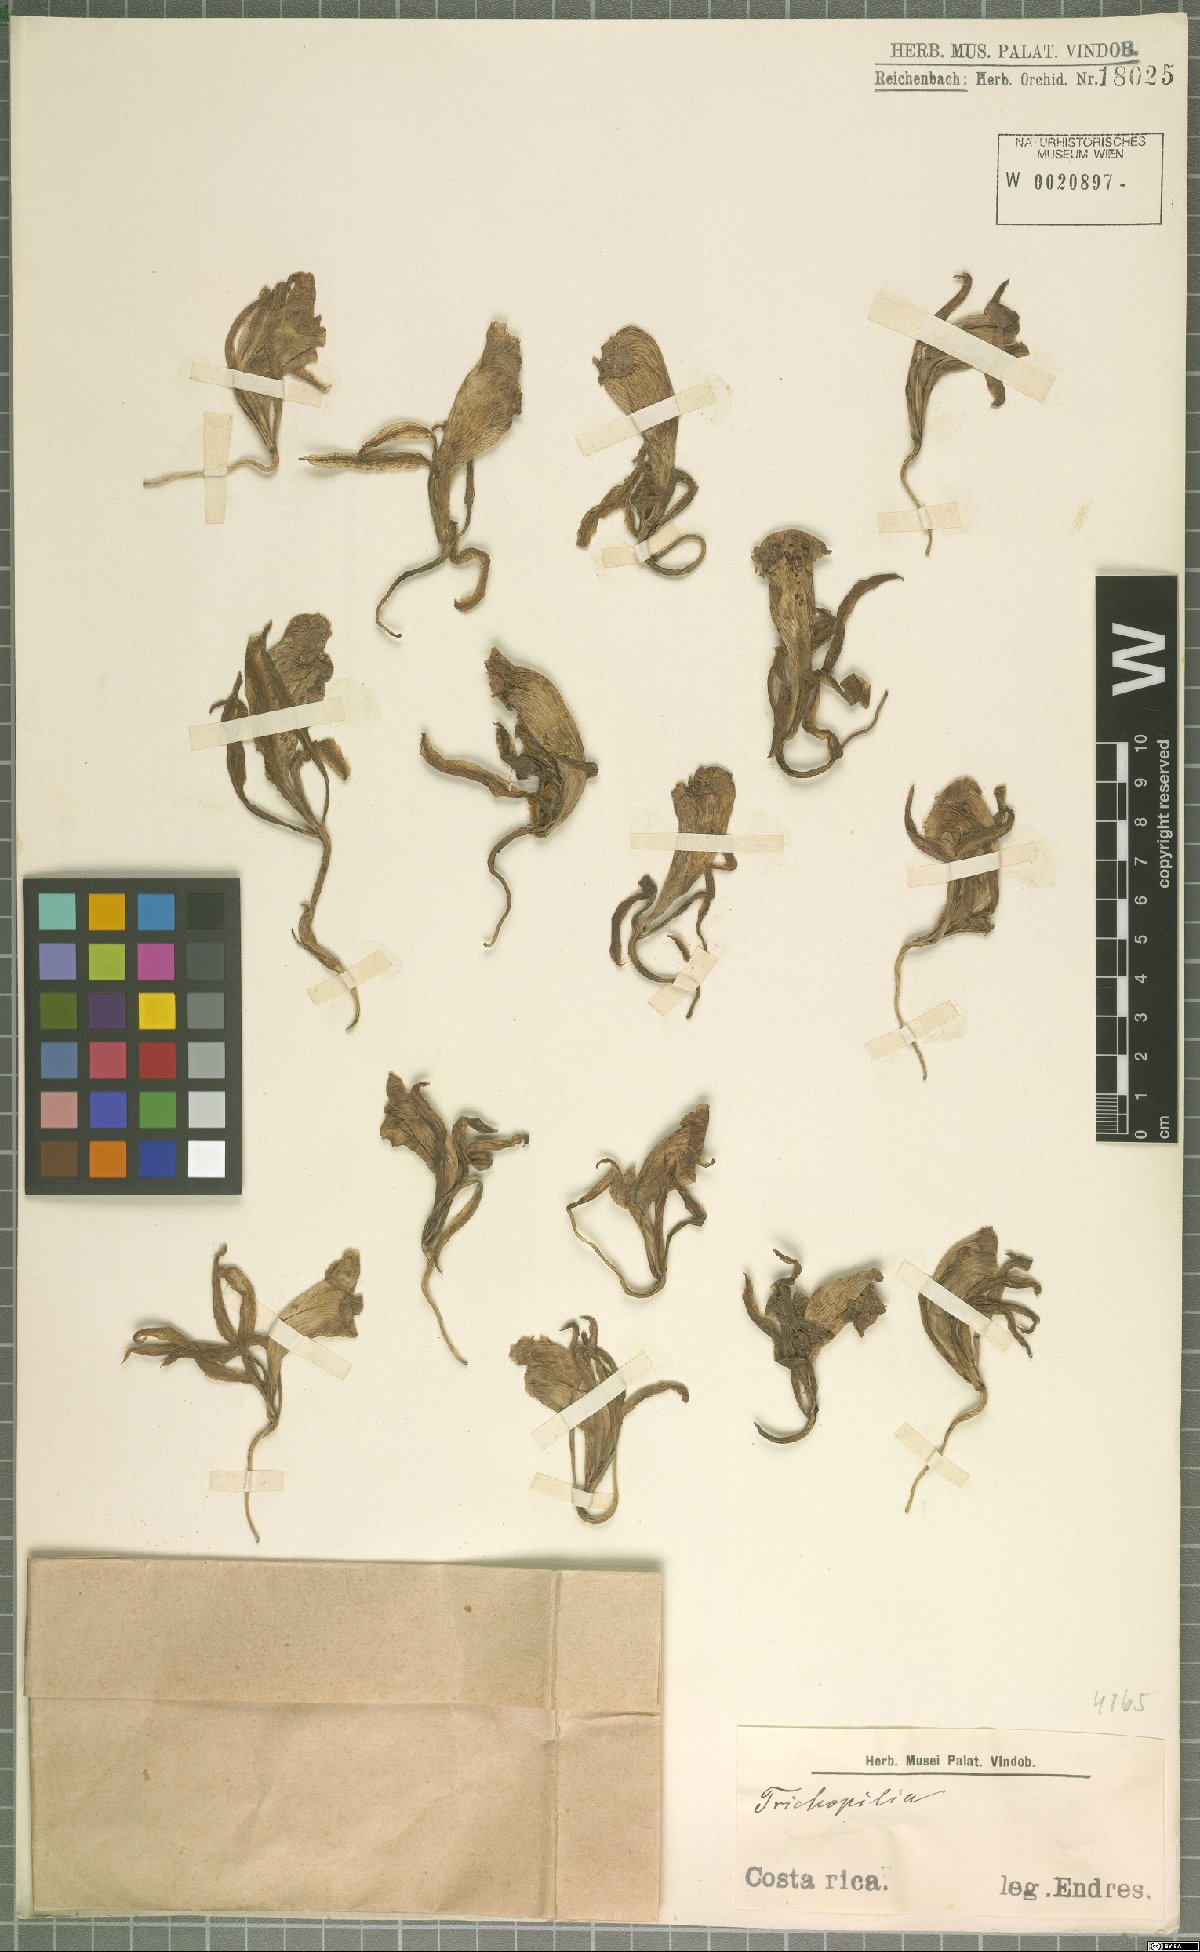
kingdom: Plantae
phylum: Tracheophyta
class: Liliopsida
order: Asparagales
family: Orchidaceae
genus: Trichopilia
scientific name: Trichopilia
